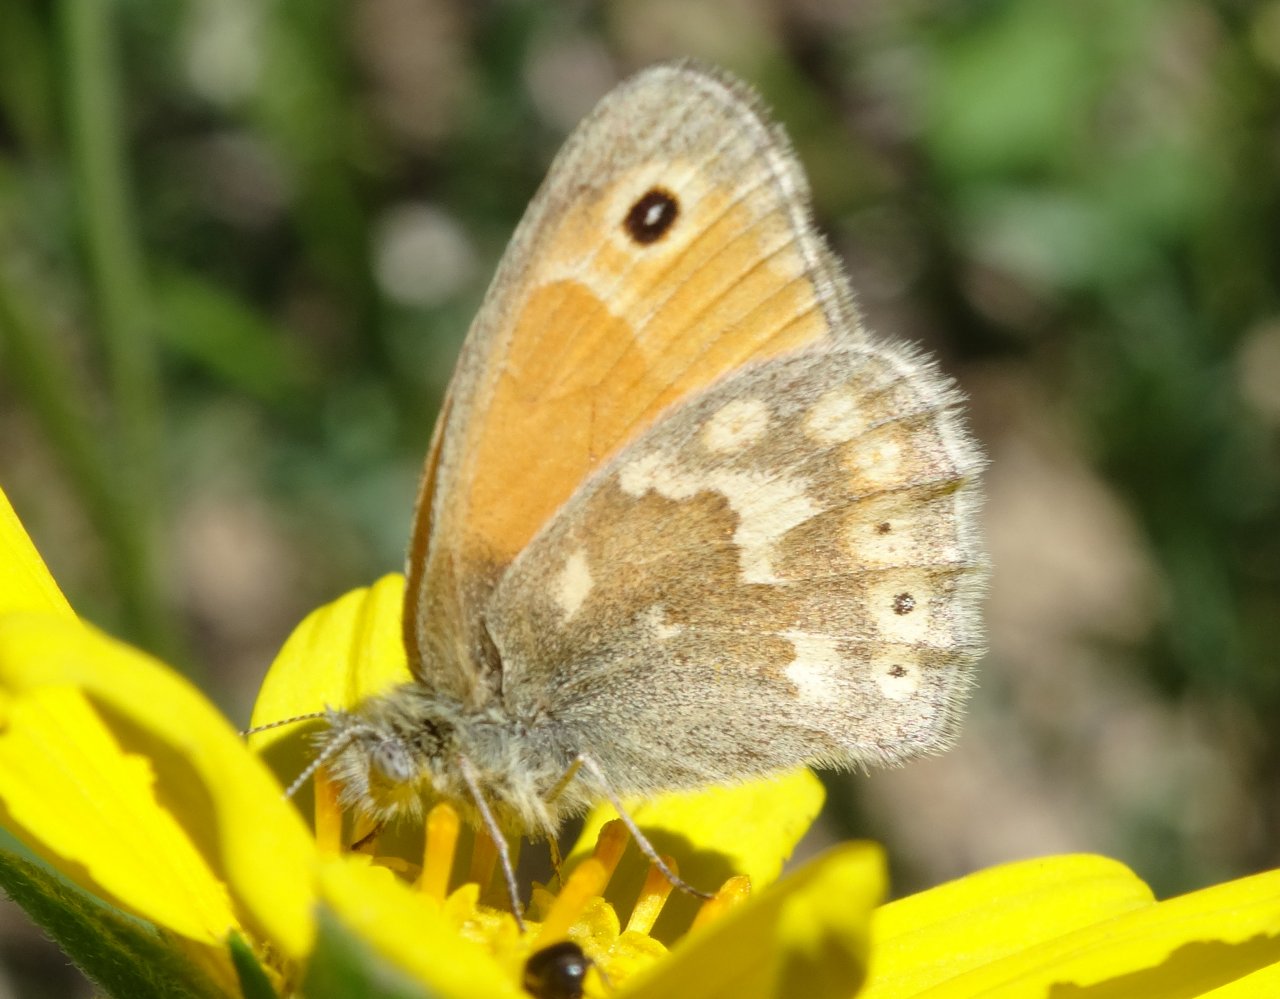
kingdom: Animalia
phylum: Arthropoda
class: Insecta
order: Lepidoptera
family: Nymphalidae
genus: Coenonympha
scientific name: Coenonympha tullia
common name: Large Heath
